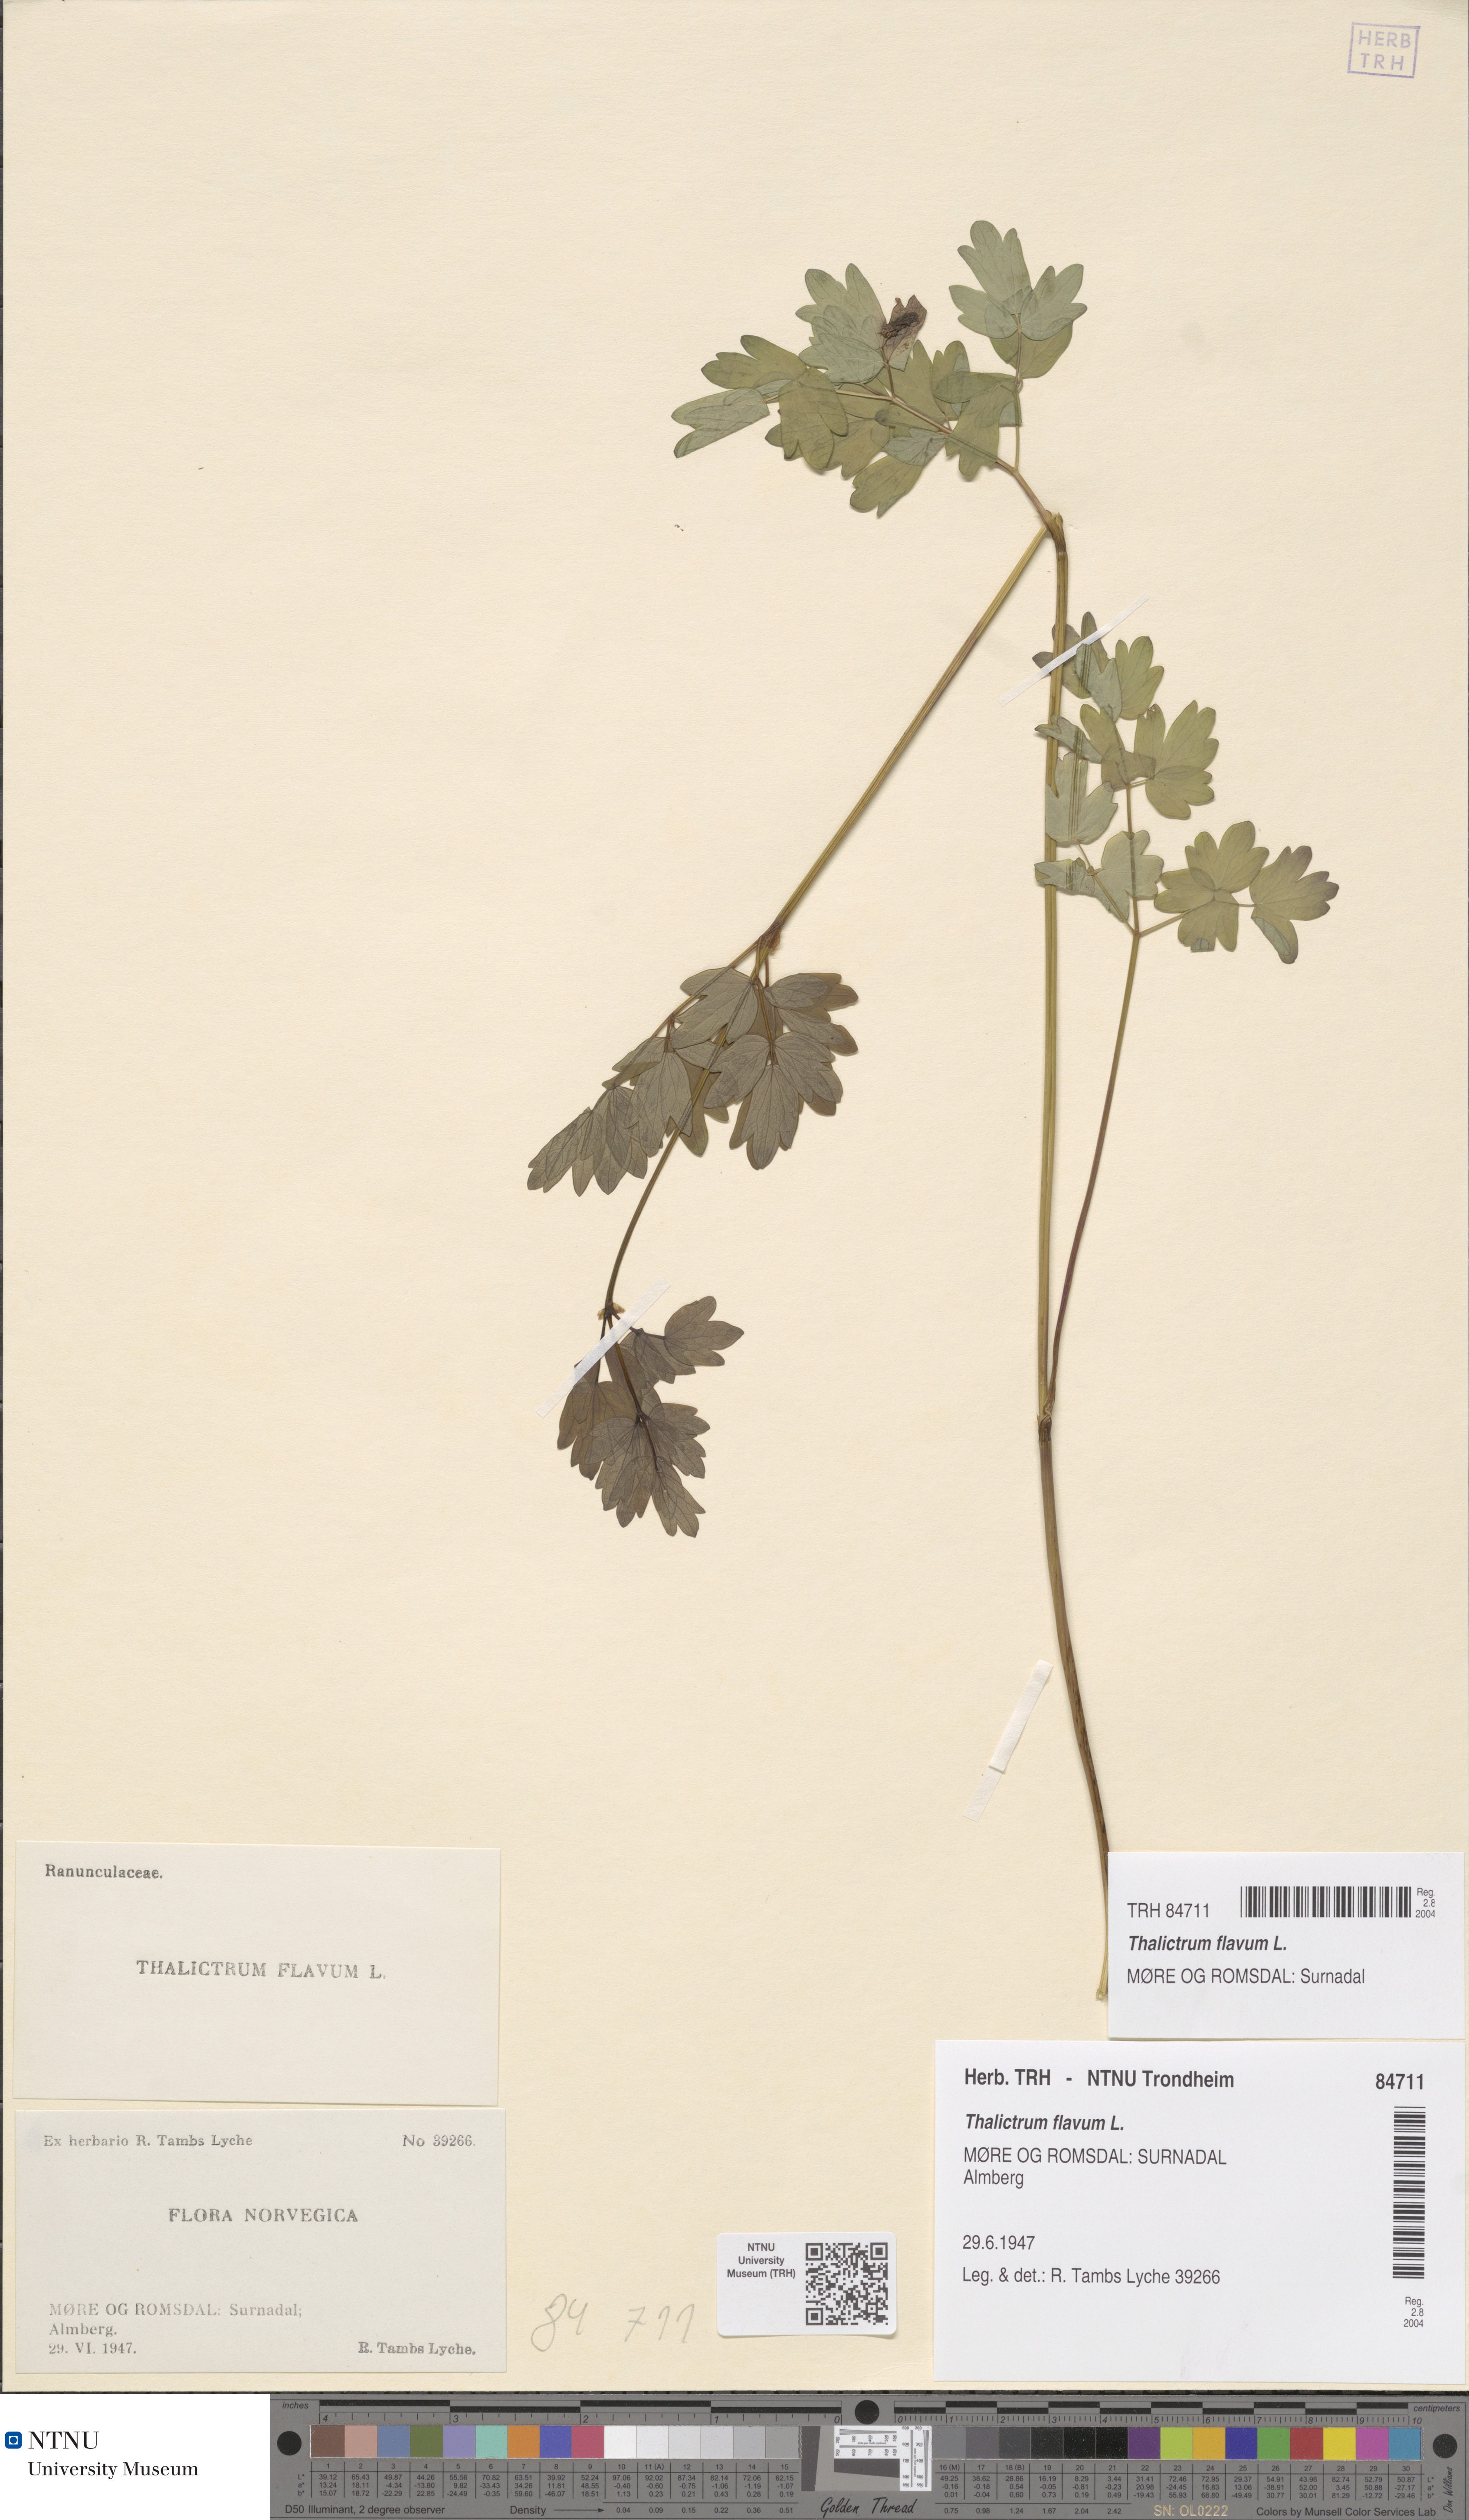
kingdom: Plantae
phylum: Tracheophyta
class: Magnoliopsida
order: Ranunculales
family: Ranunculaceae
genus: Thalictrum
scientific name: Thalictrum flavum
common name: Common meadow-rue
